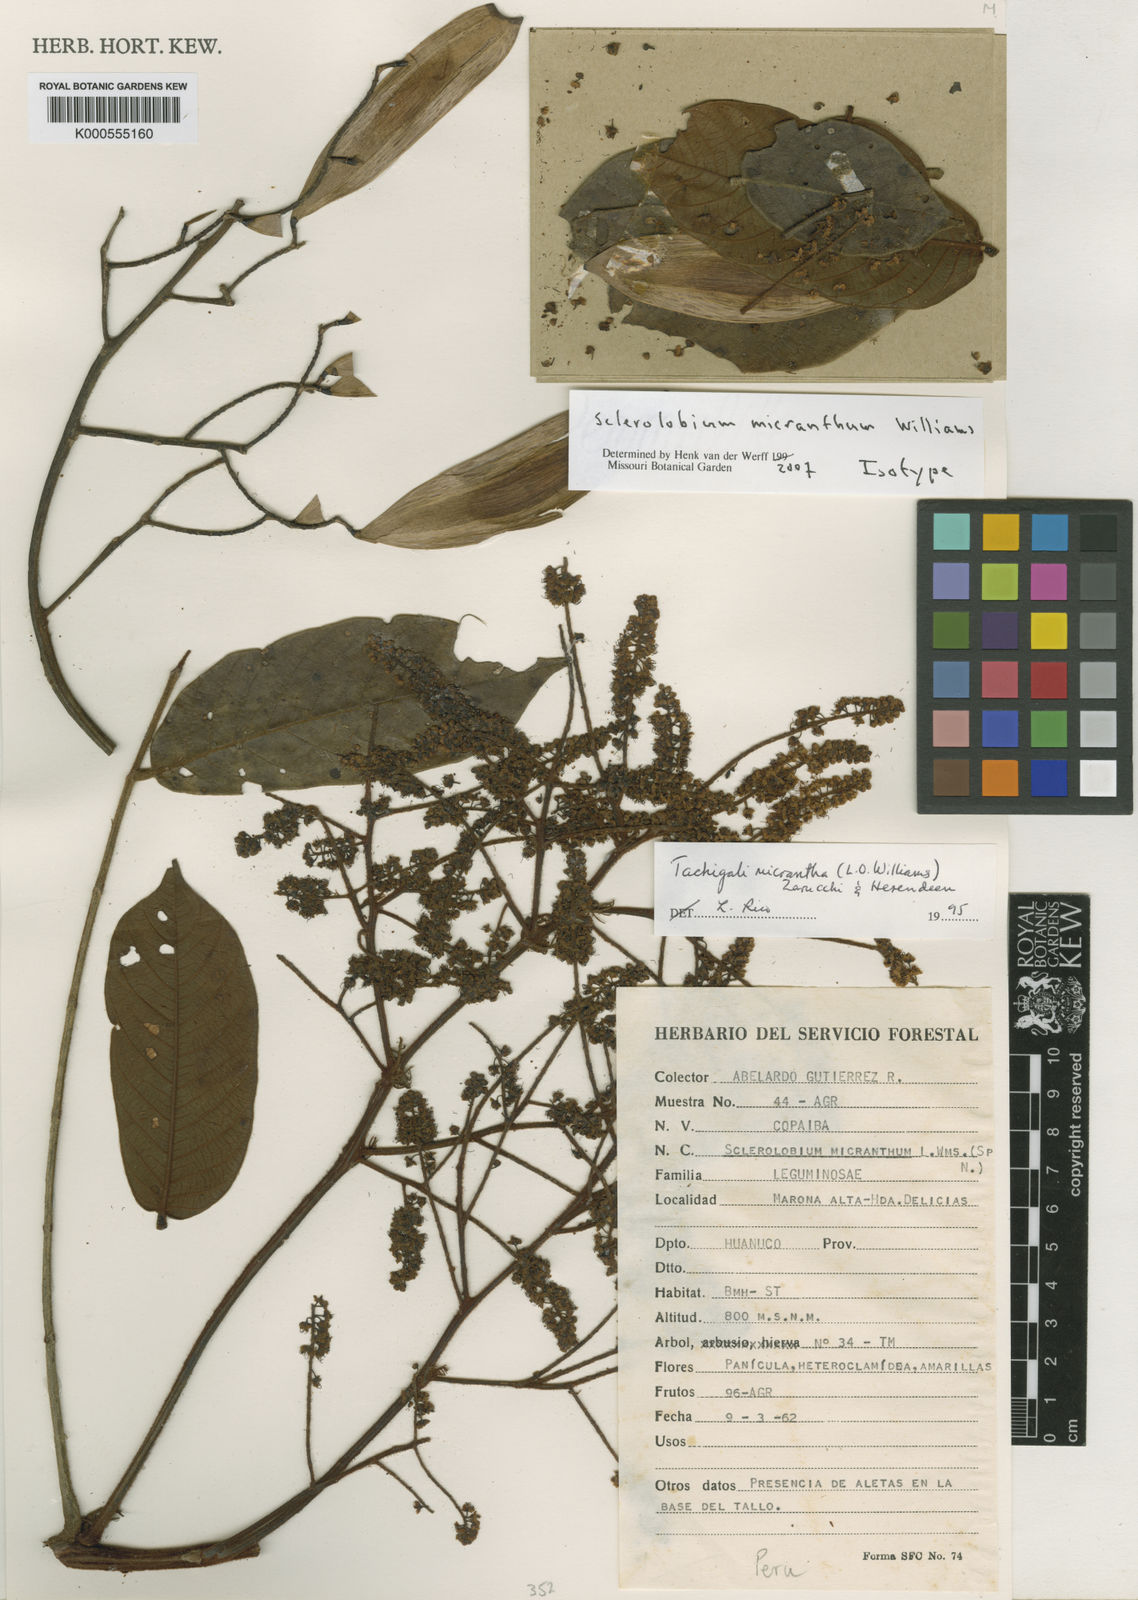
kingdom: Plantae
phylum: Tracheophyta
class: Magnoliopsida
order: Fabales
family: Fabaceae
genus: Tachigali
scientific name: Tachigali micrantha
